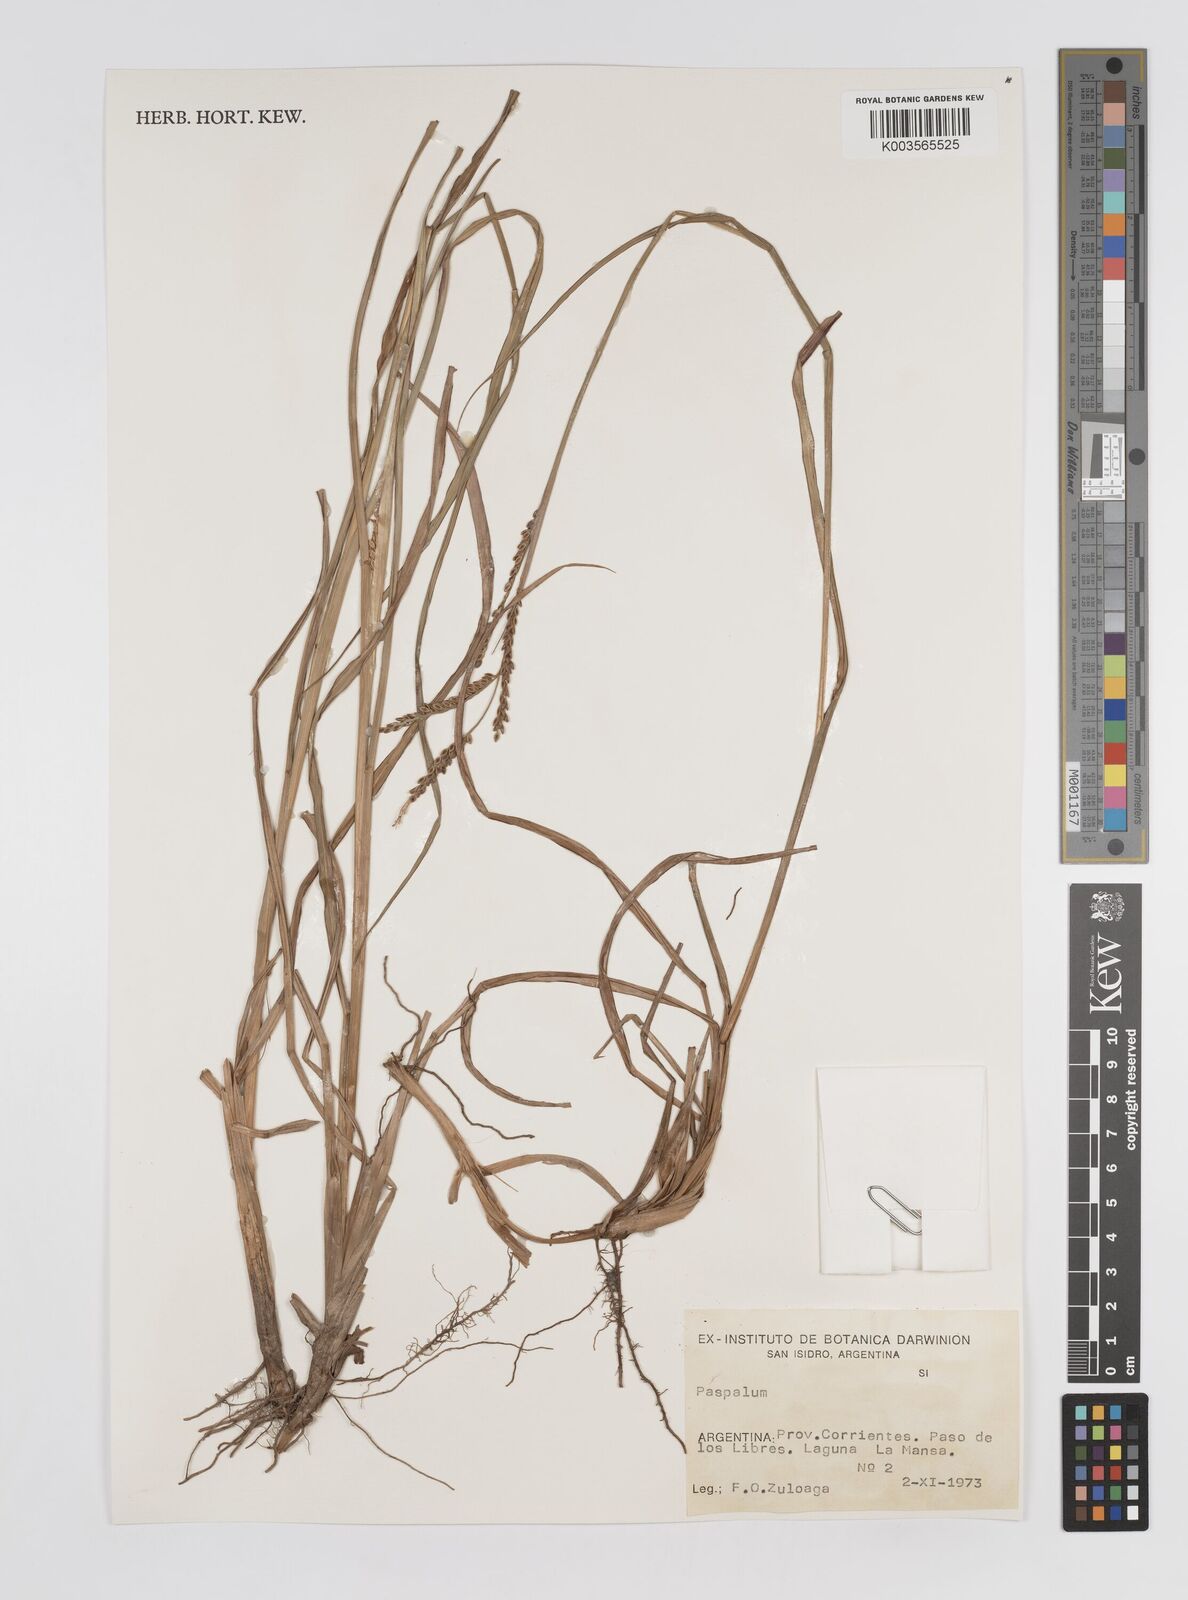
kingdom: Plantae
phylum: Tracheophyta
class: Liliopsida
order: Poales
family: Poaceae
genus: Paspalum
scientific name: Paspalum
